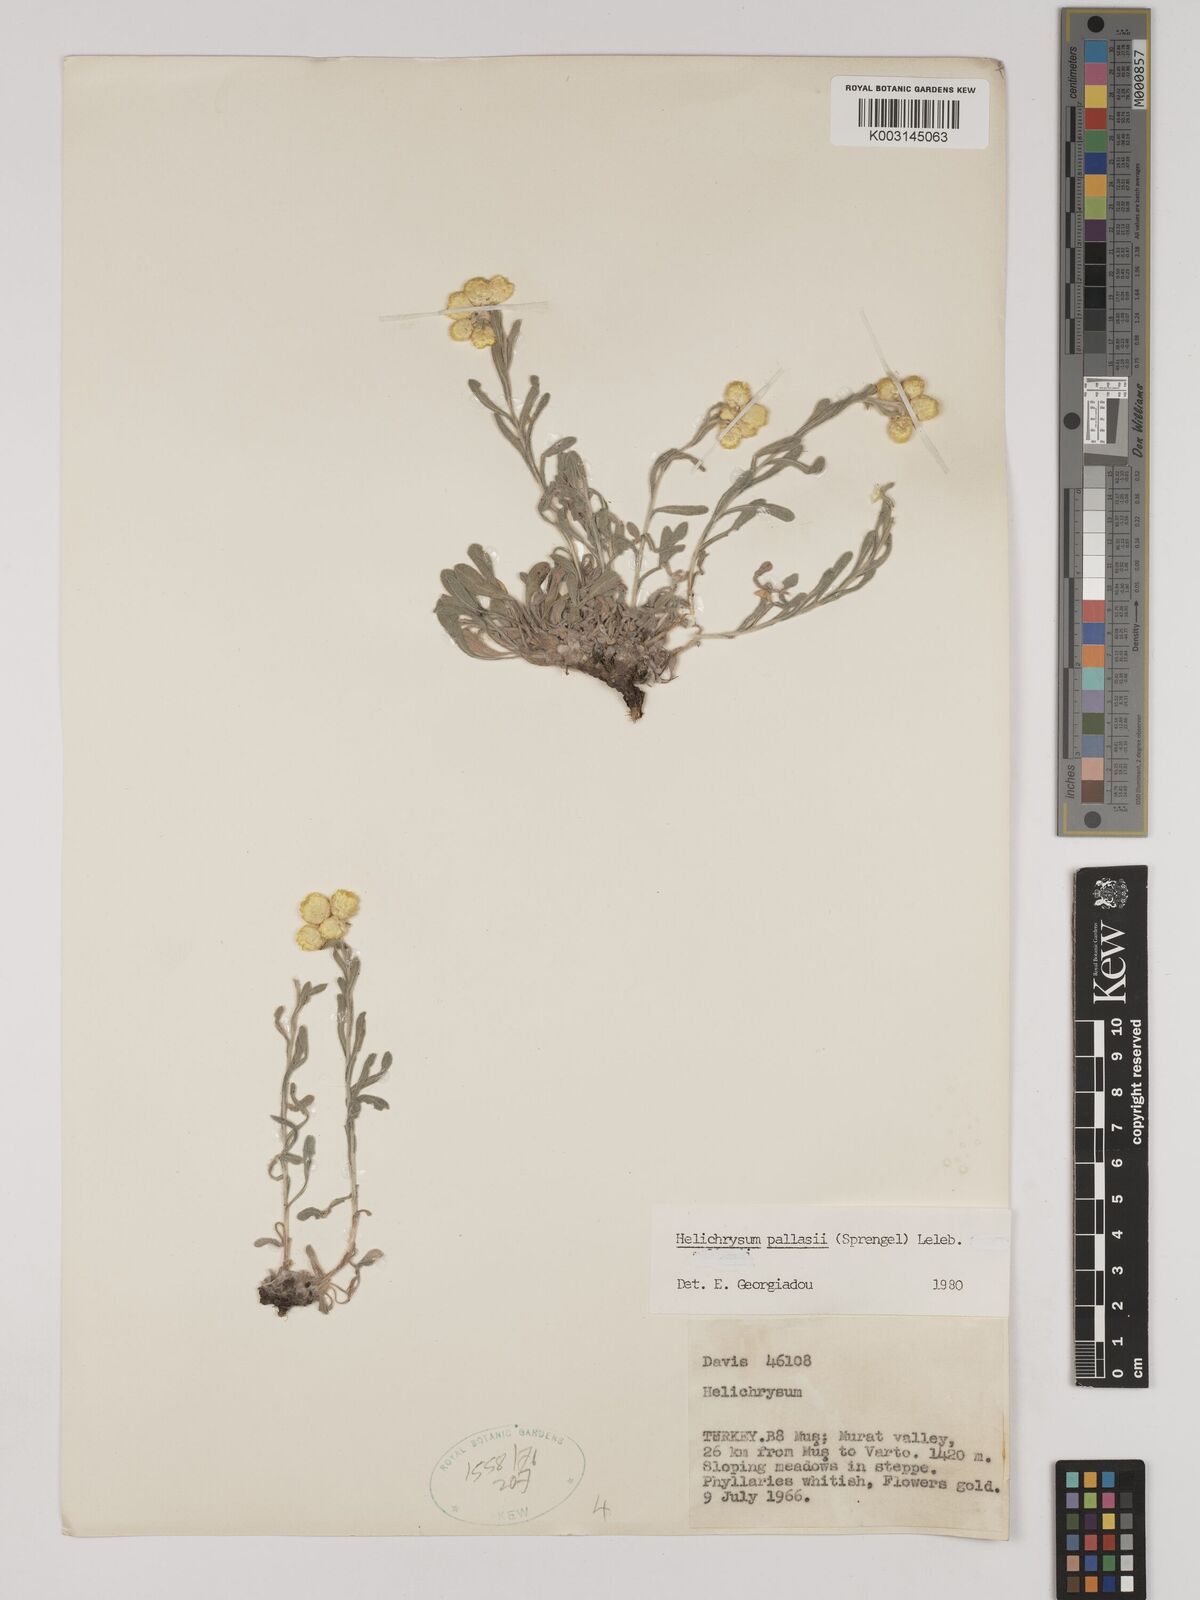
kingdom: Plantae
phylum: Tracheophyta
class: Magnoliopsida
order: Asterales
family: Asteraceae
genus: Helichrysum
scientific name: Helichrysum pallasii
